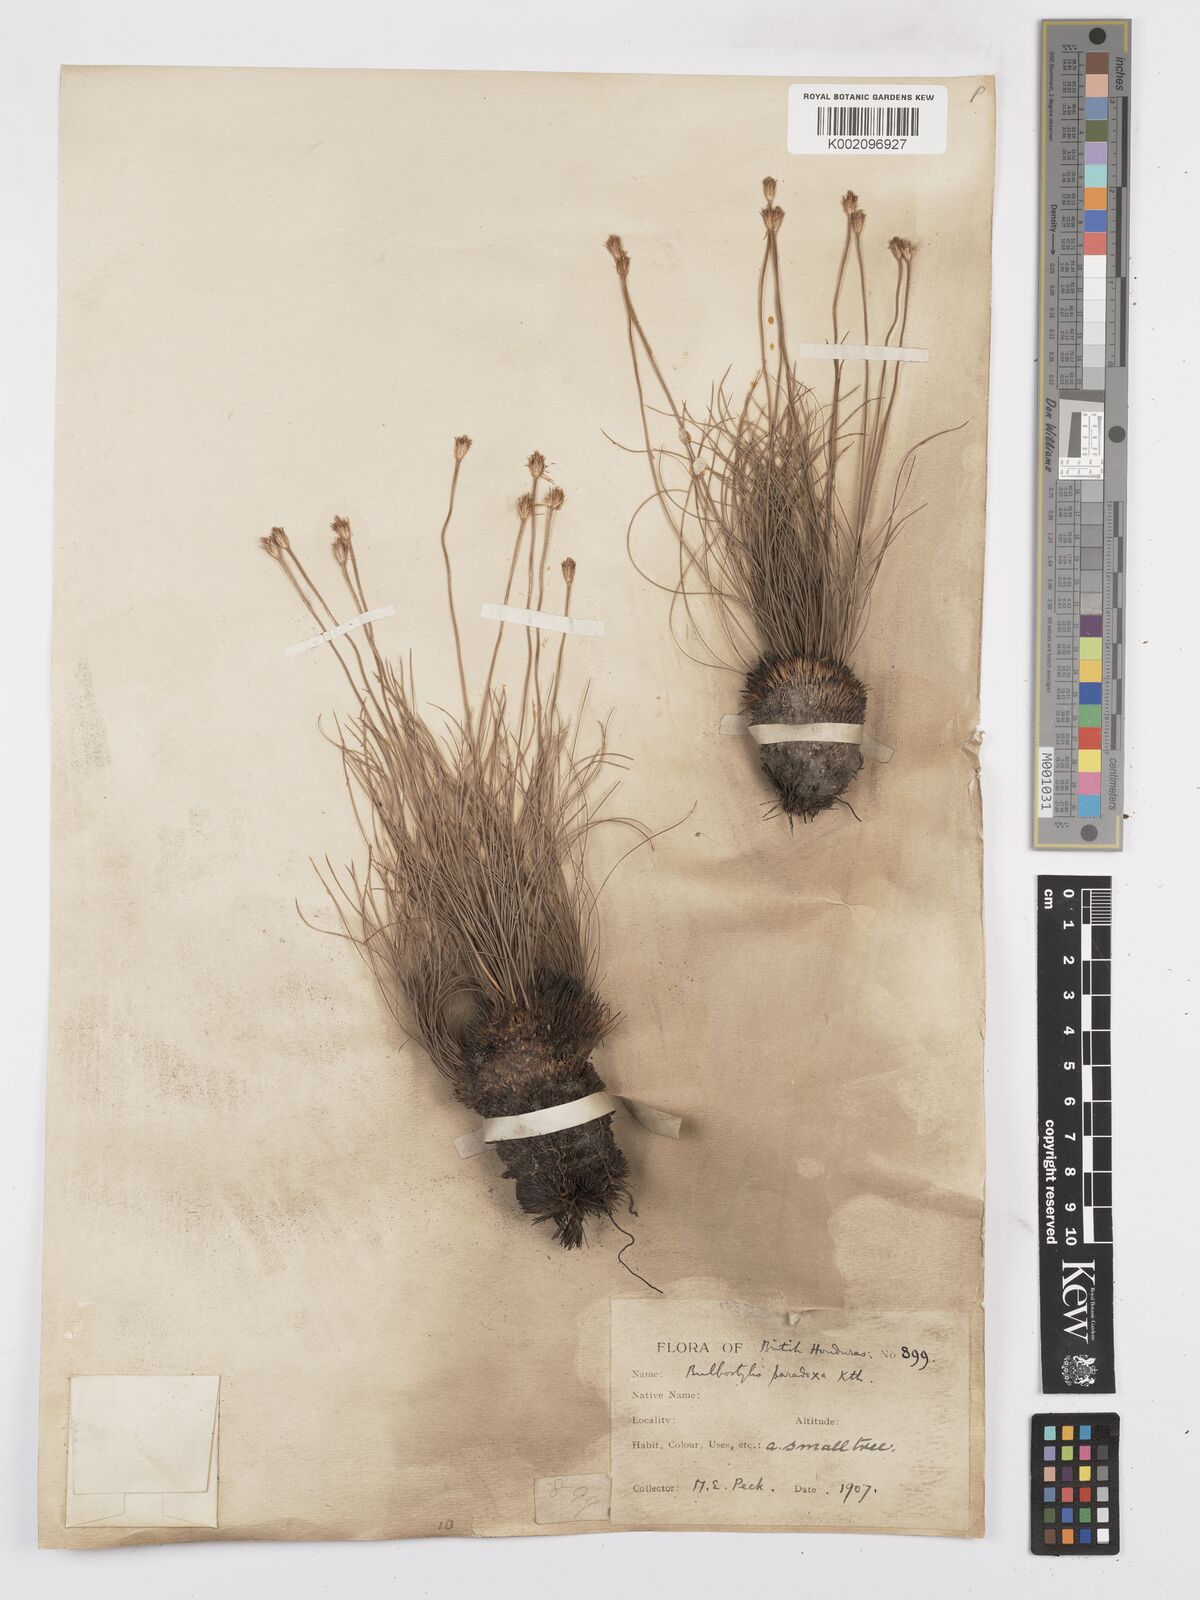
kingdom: Plantae
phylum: Tracheophyta
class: Liliopsida
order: Poales
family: Cyperaceae
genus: Bulbostylis
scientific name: Bulbostylis paradoxa
